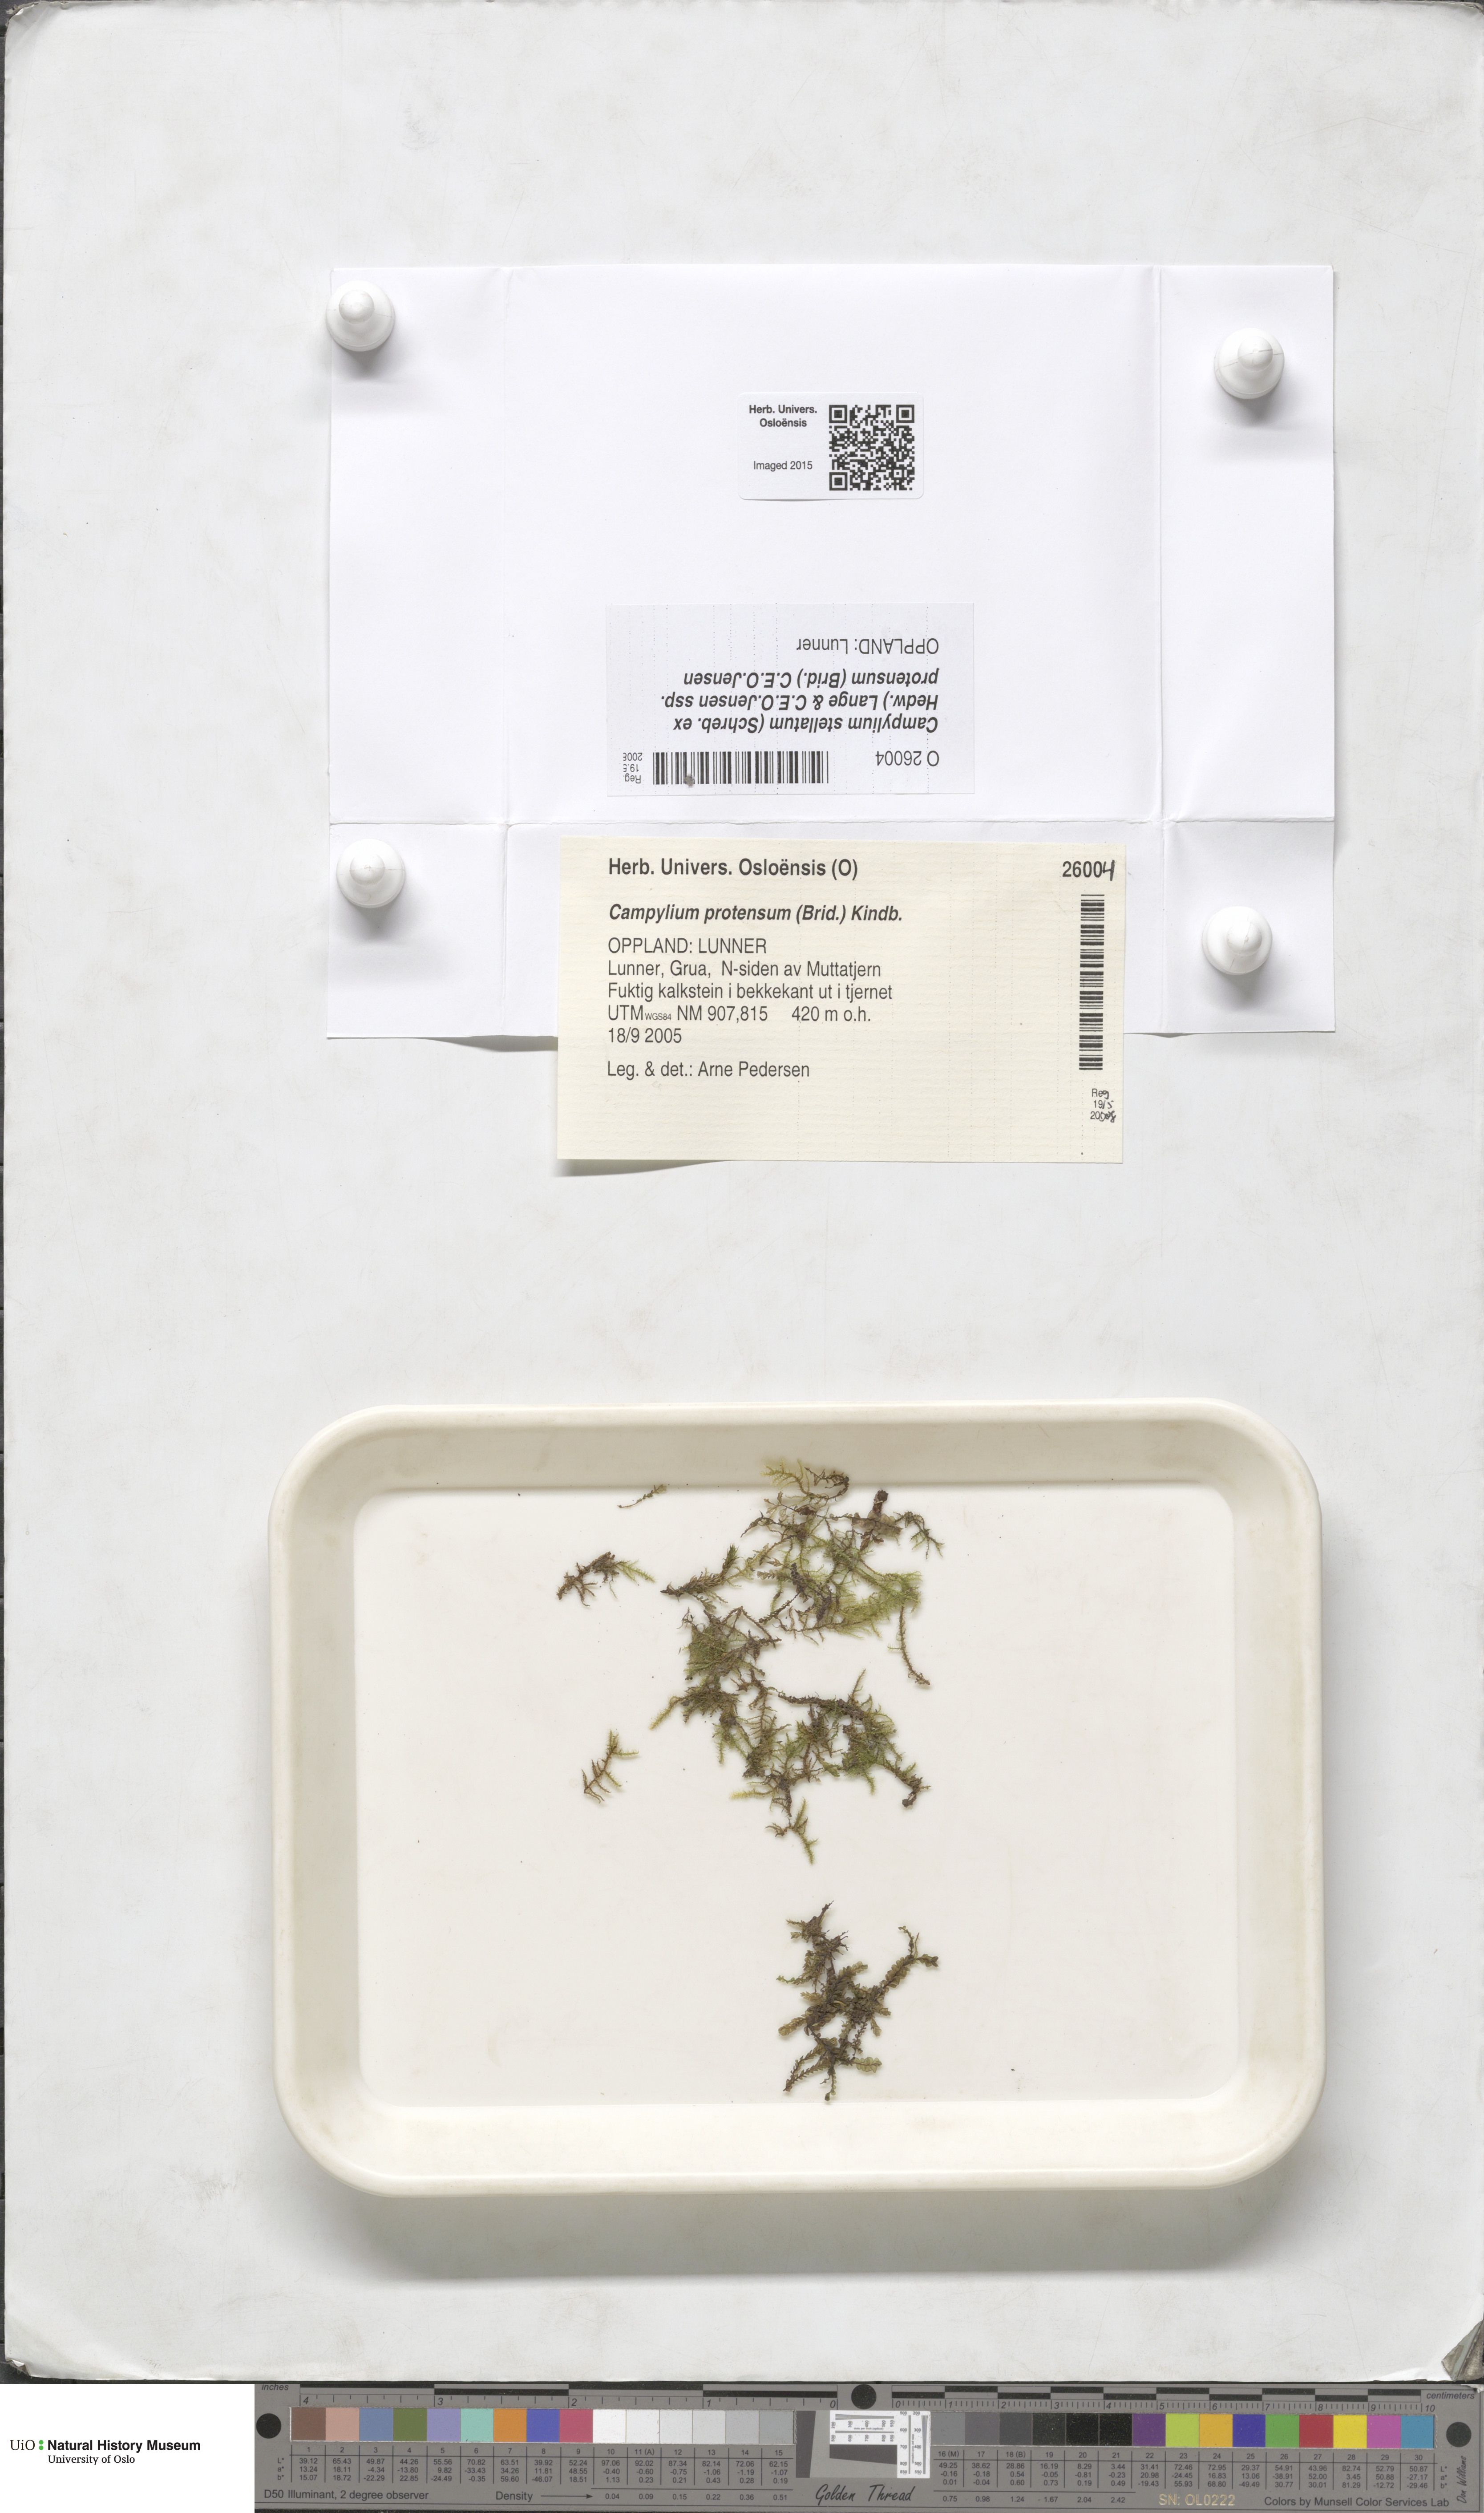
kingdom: Plantae
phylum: Bryophyta
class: Bryopsida
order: Hypnales
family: Amblystegiaceae
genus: Campylium
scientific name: Campylium protensum
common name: Dull starry fen moss
